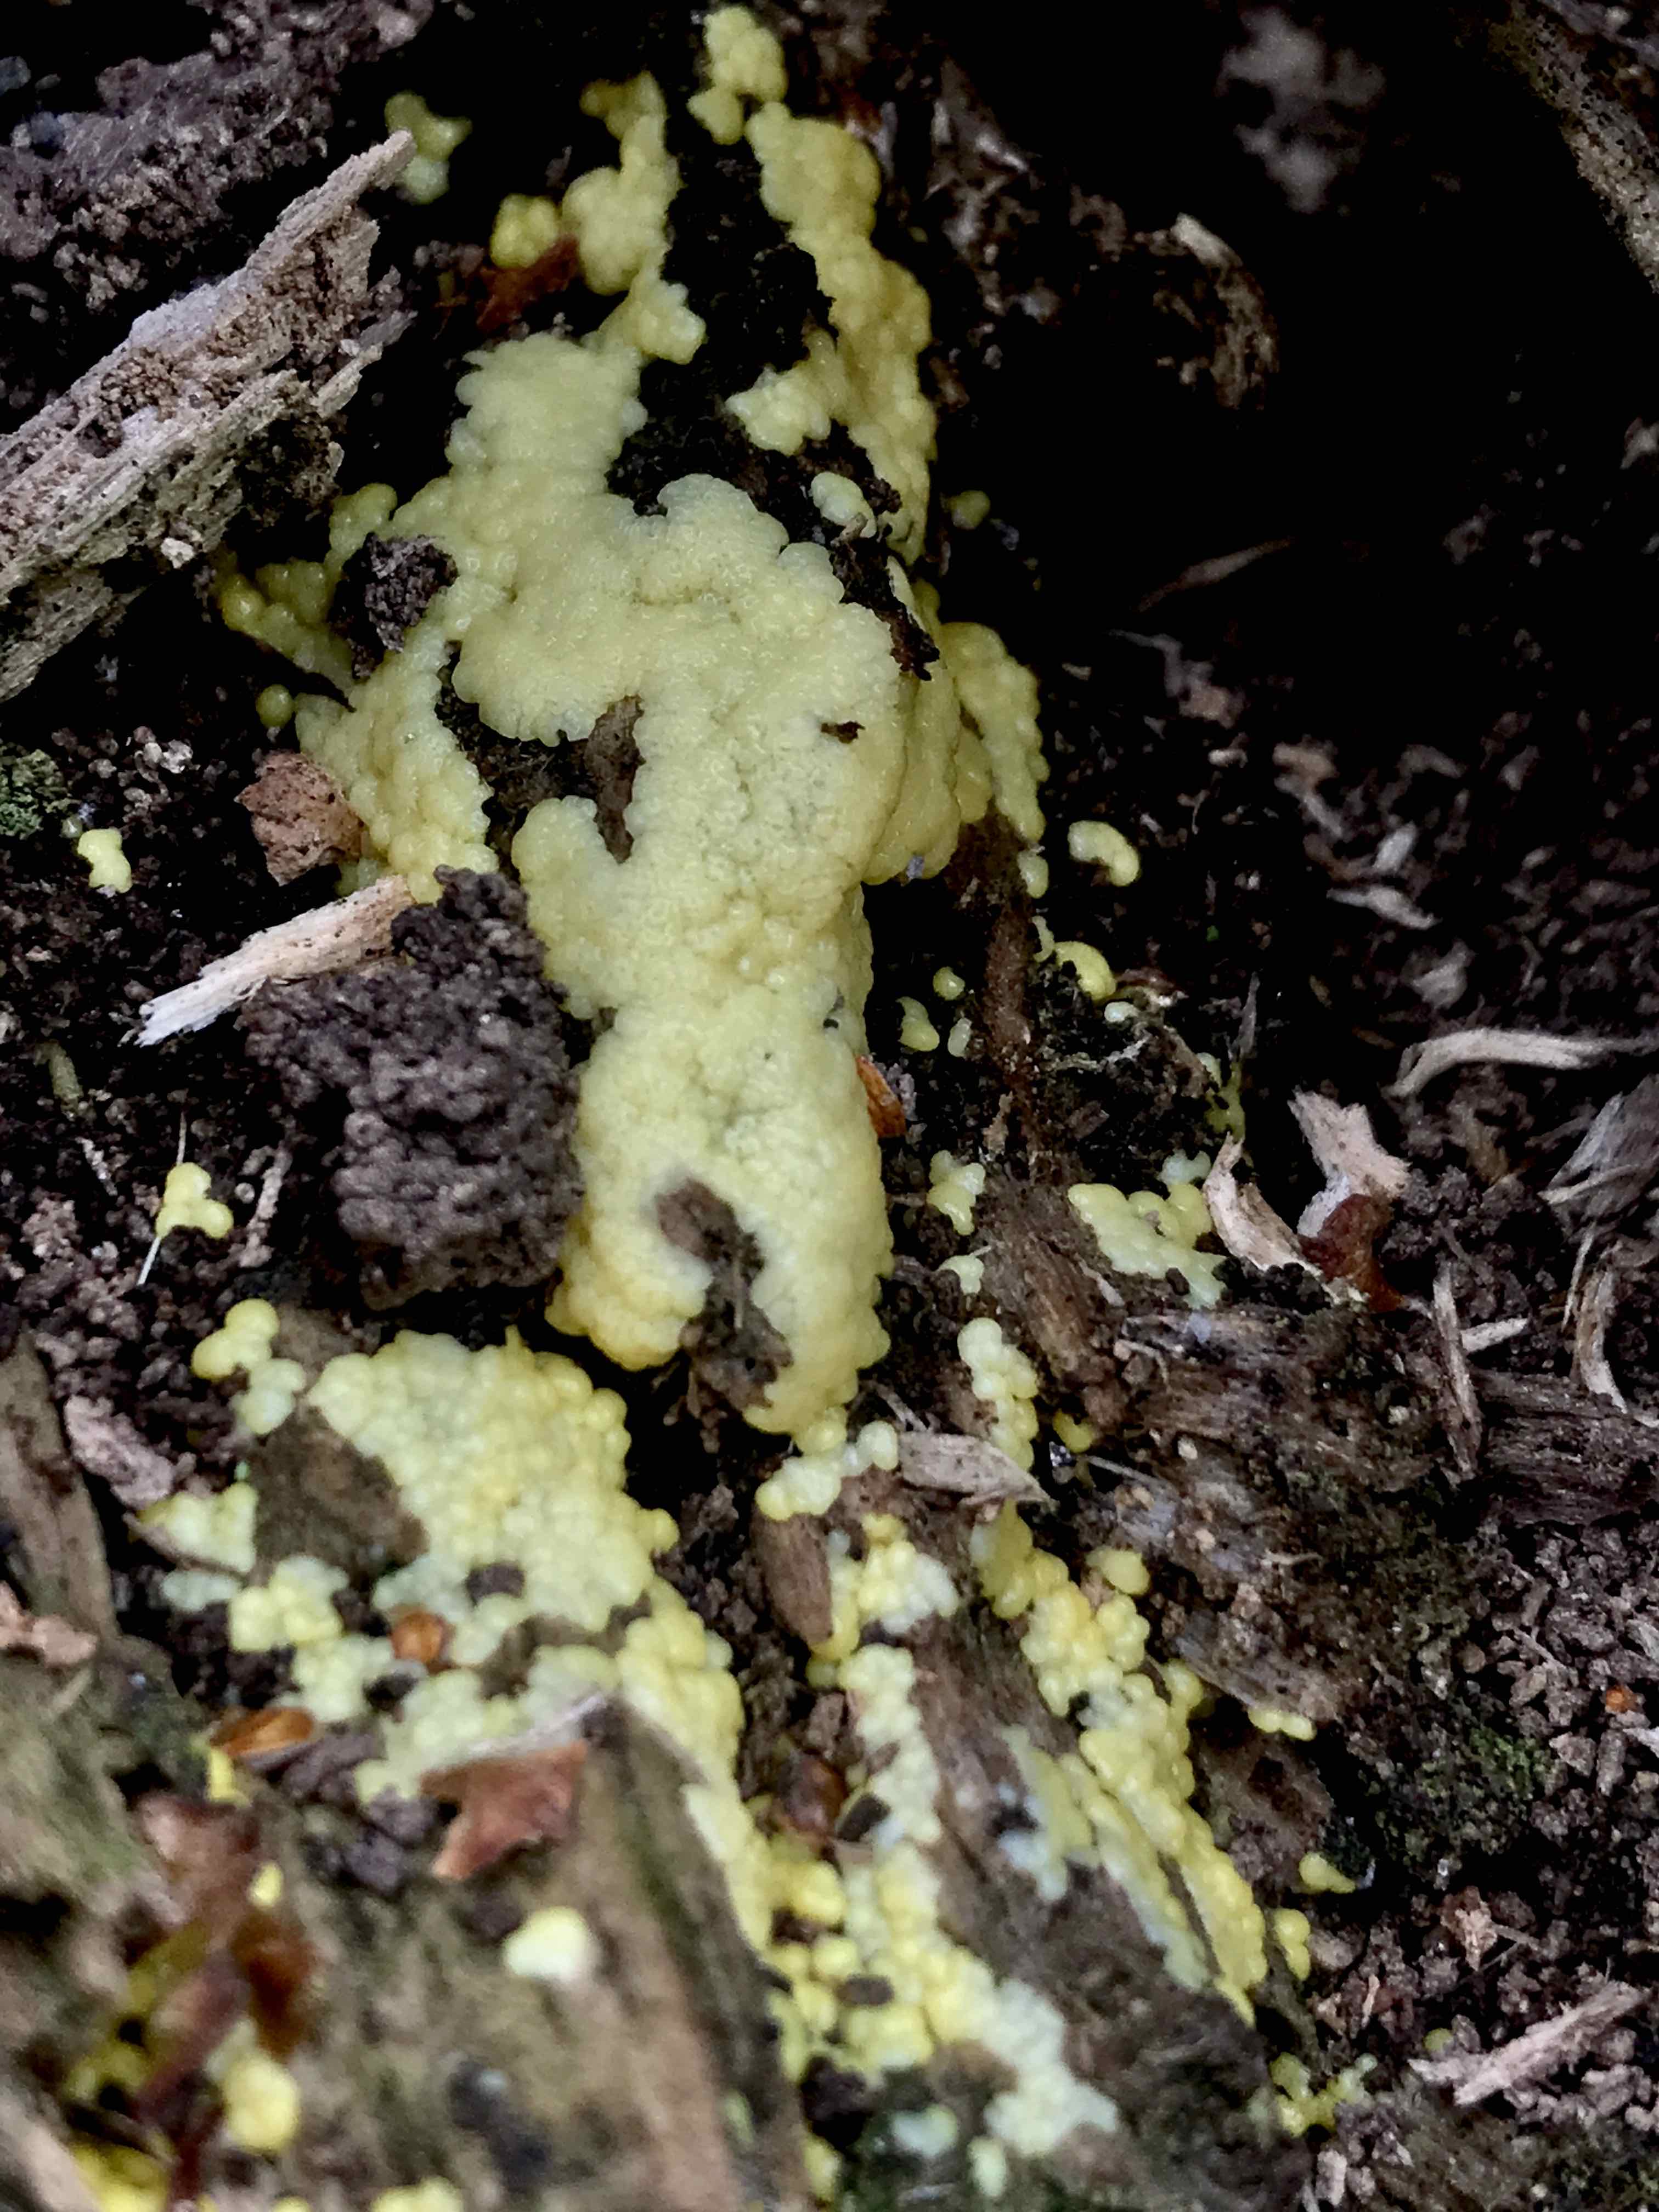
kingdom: Protozoa
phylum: Mycetozoa
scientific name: Mycetozoa
